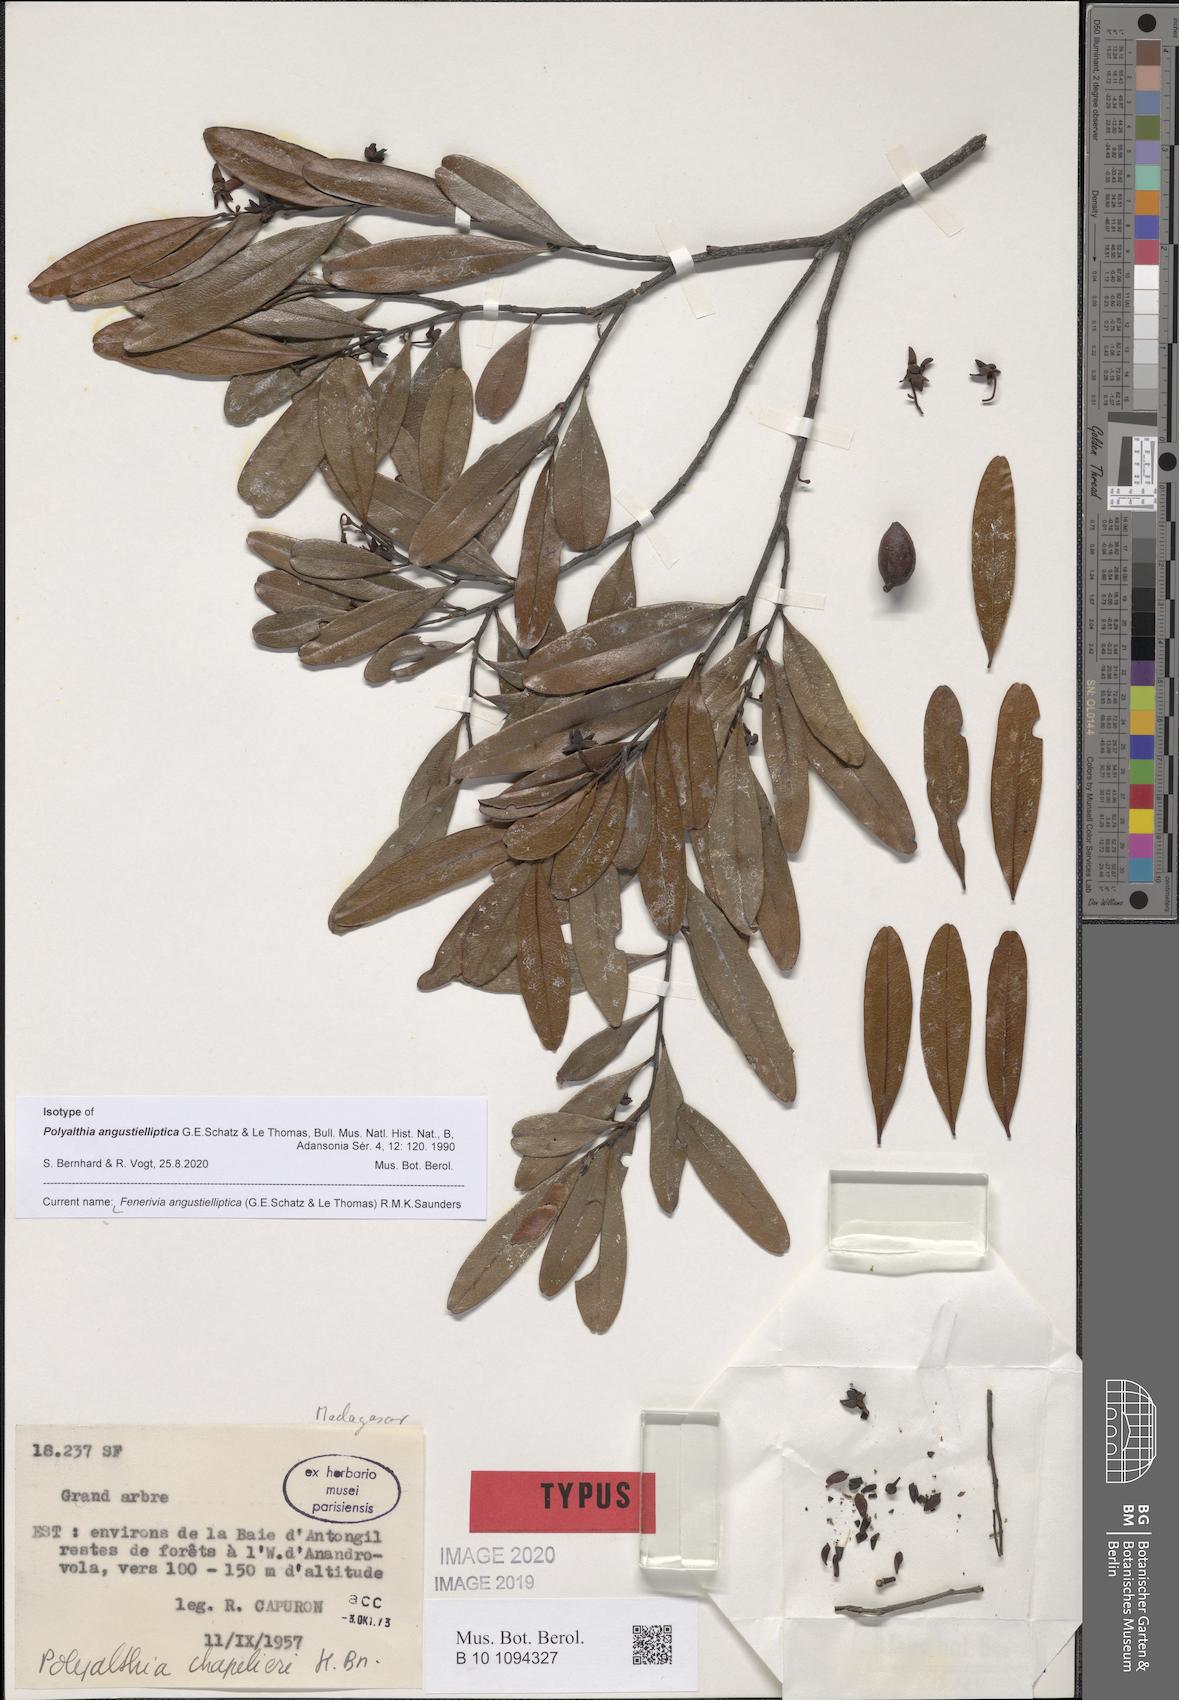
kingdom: Plantae
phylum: Tracheophyta
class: Magnoliopsida
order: Magnoliales
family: Annonaceae
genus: Fenerivia
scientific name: Fenerivia angustielliptica
